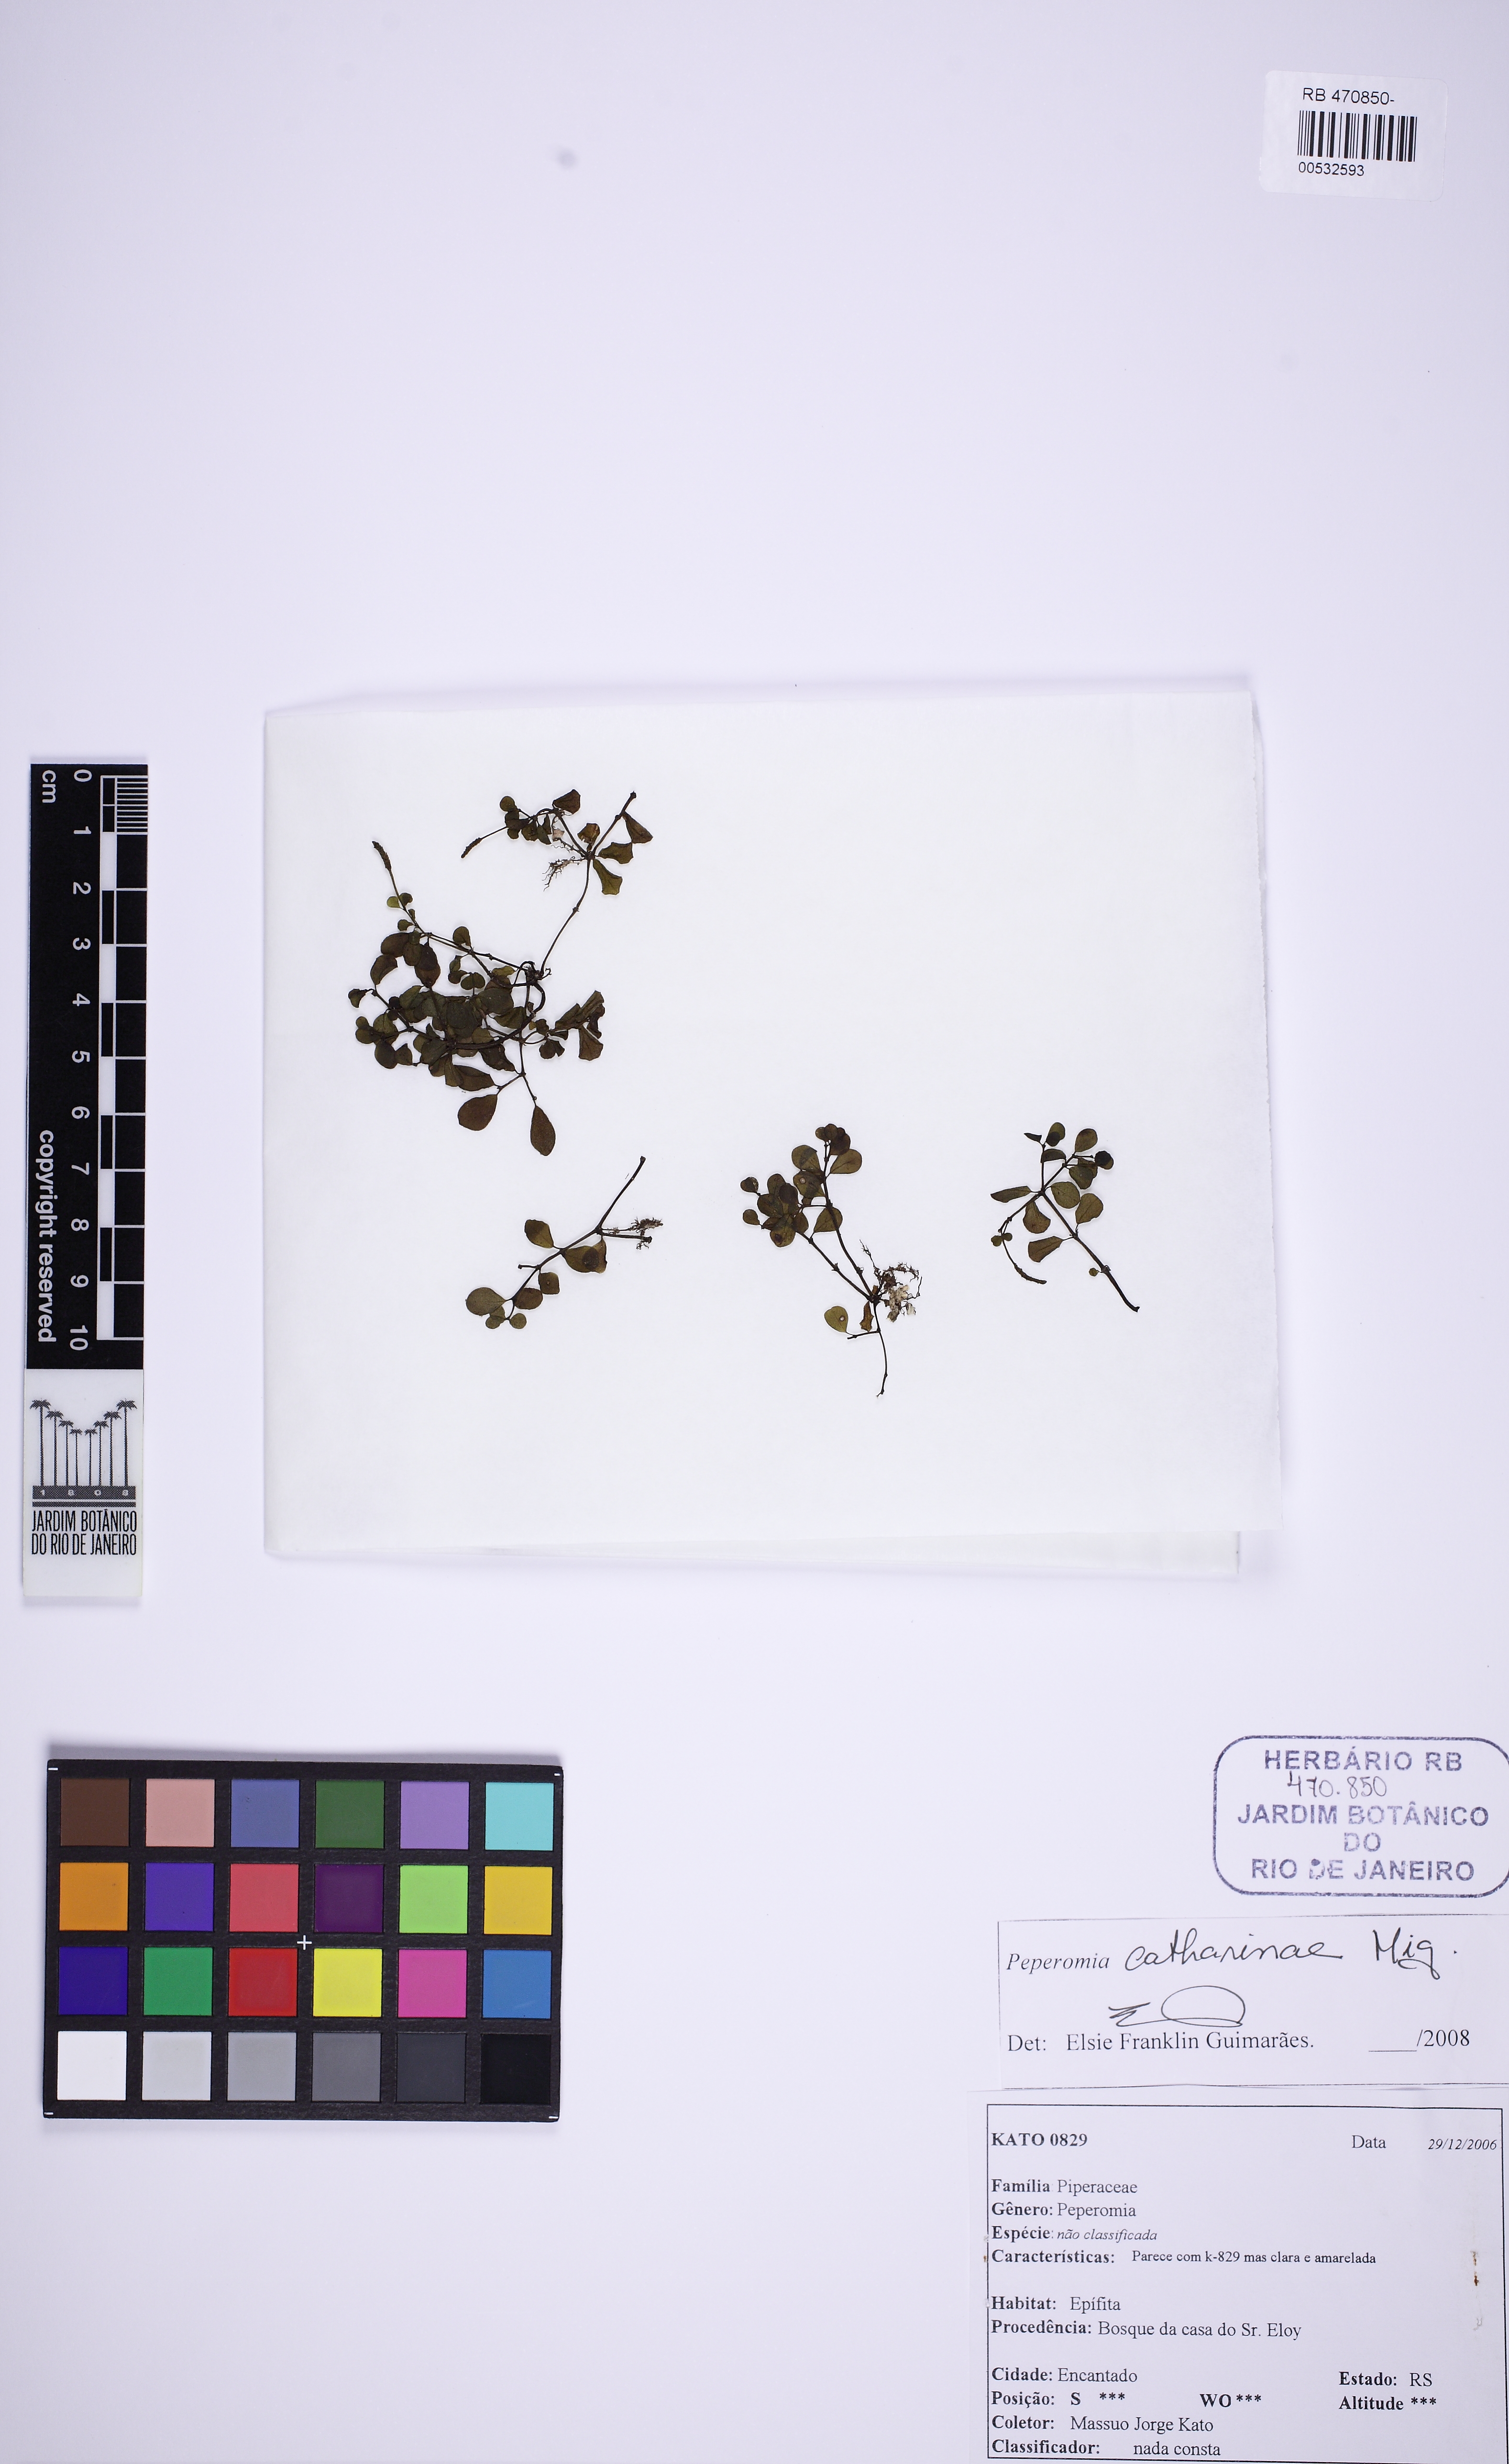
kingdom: Plantae
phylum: Tracheophyta
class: Magnoliopsida
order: Piperales
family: Piperaceae
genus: Peperomia
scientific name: Peperomia catharinae
